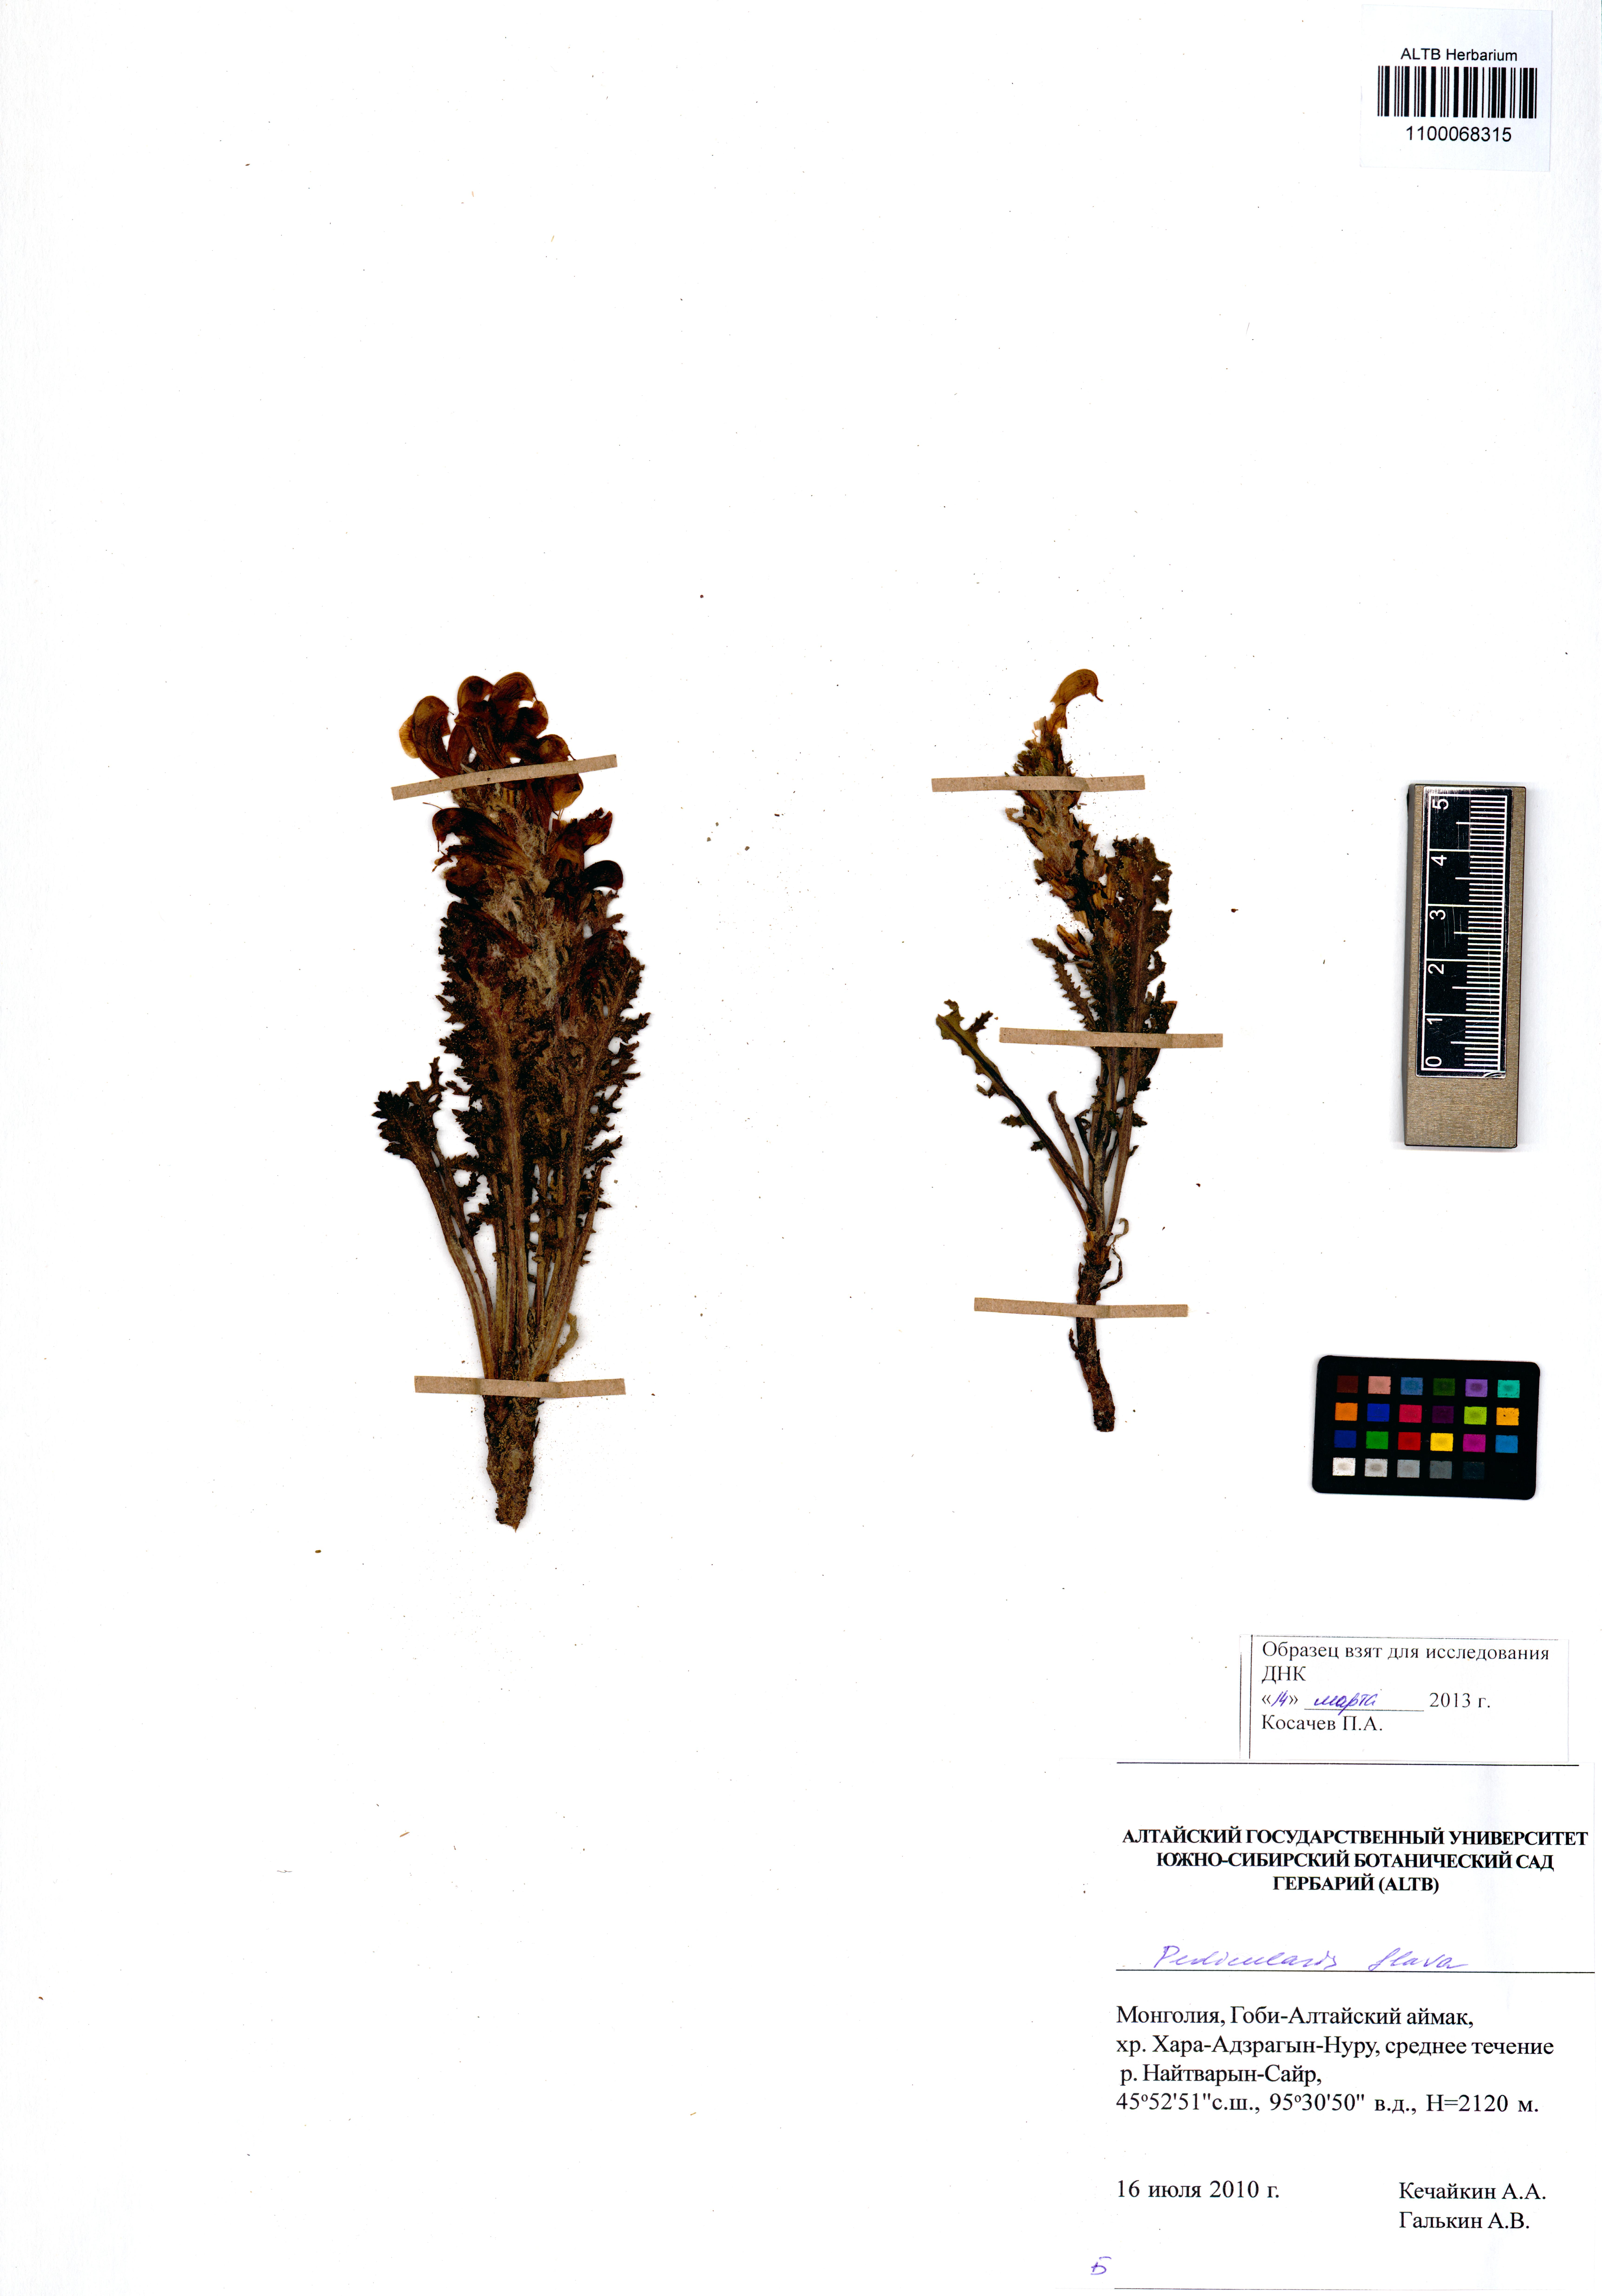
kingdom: Plantae
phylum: Tracheophyta
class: Magnoliopsida
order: Lamiales
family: Orobanchaceae
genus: Pedicularis
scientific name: Pedicularis flava
